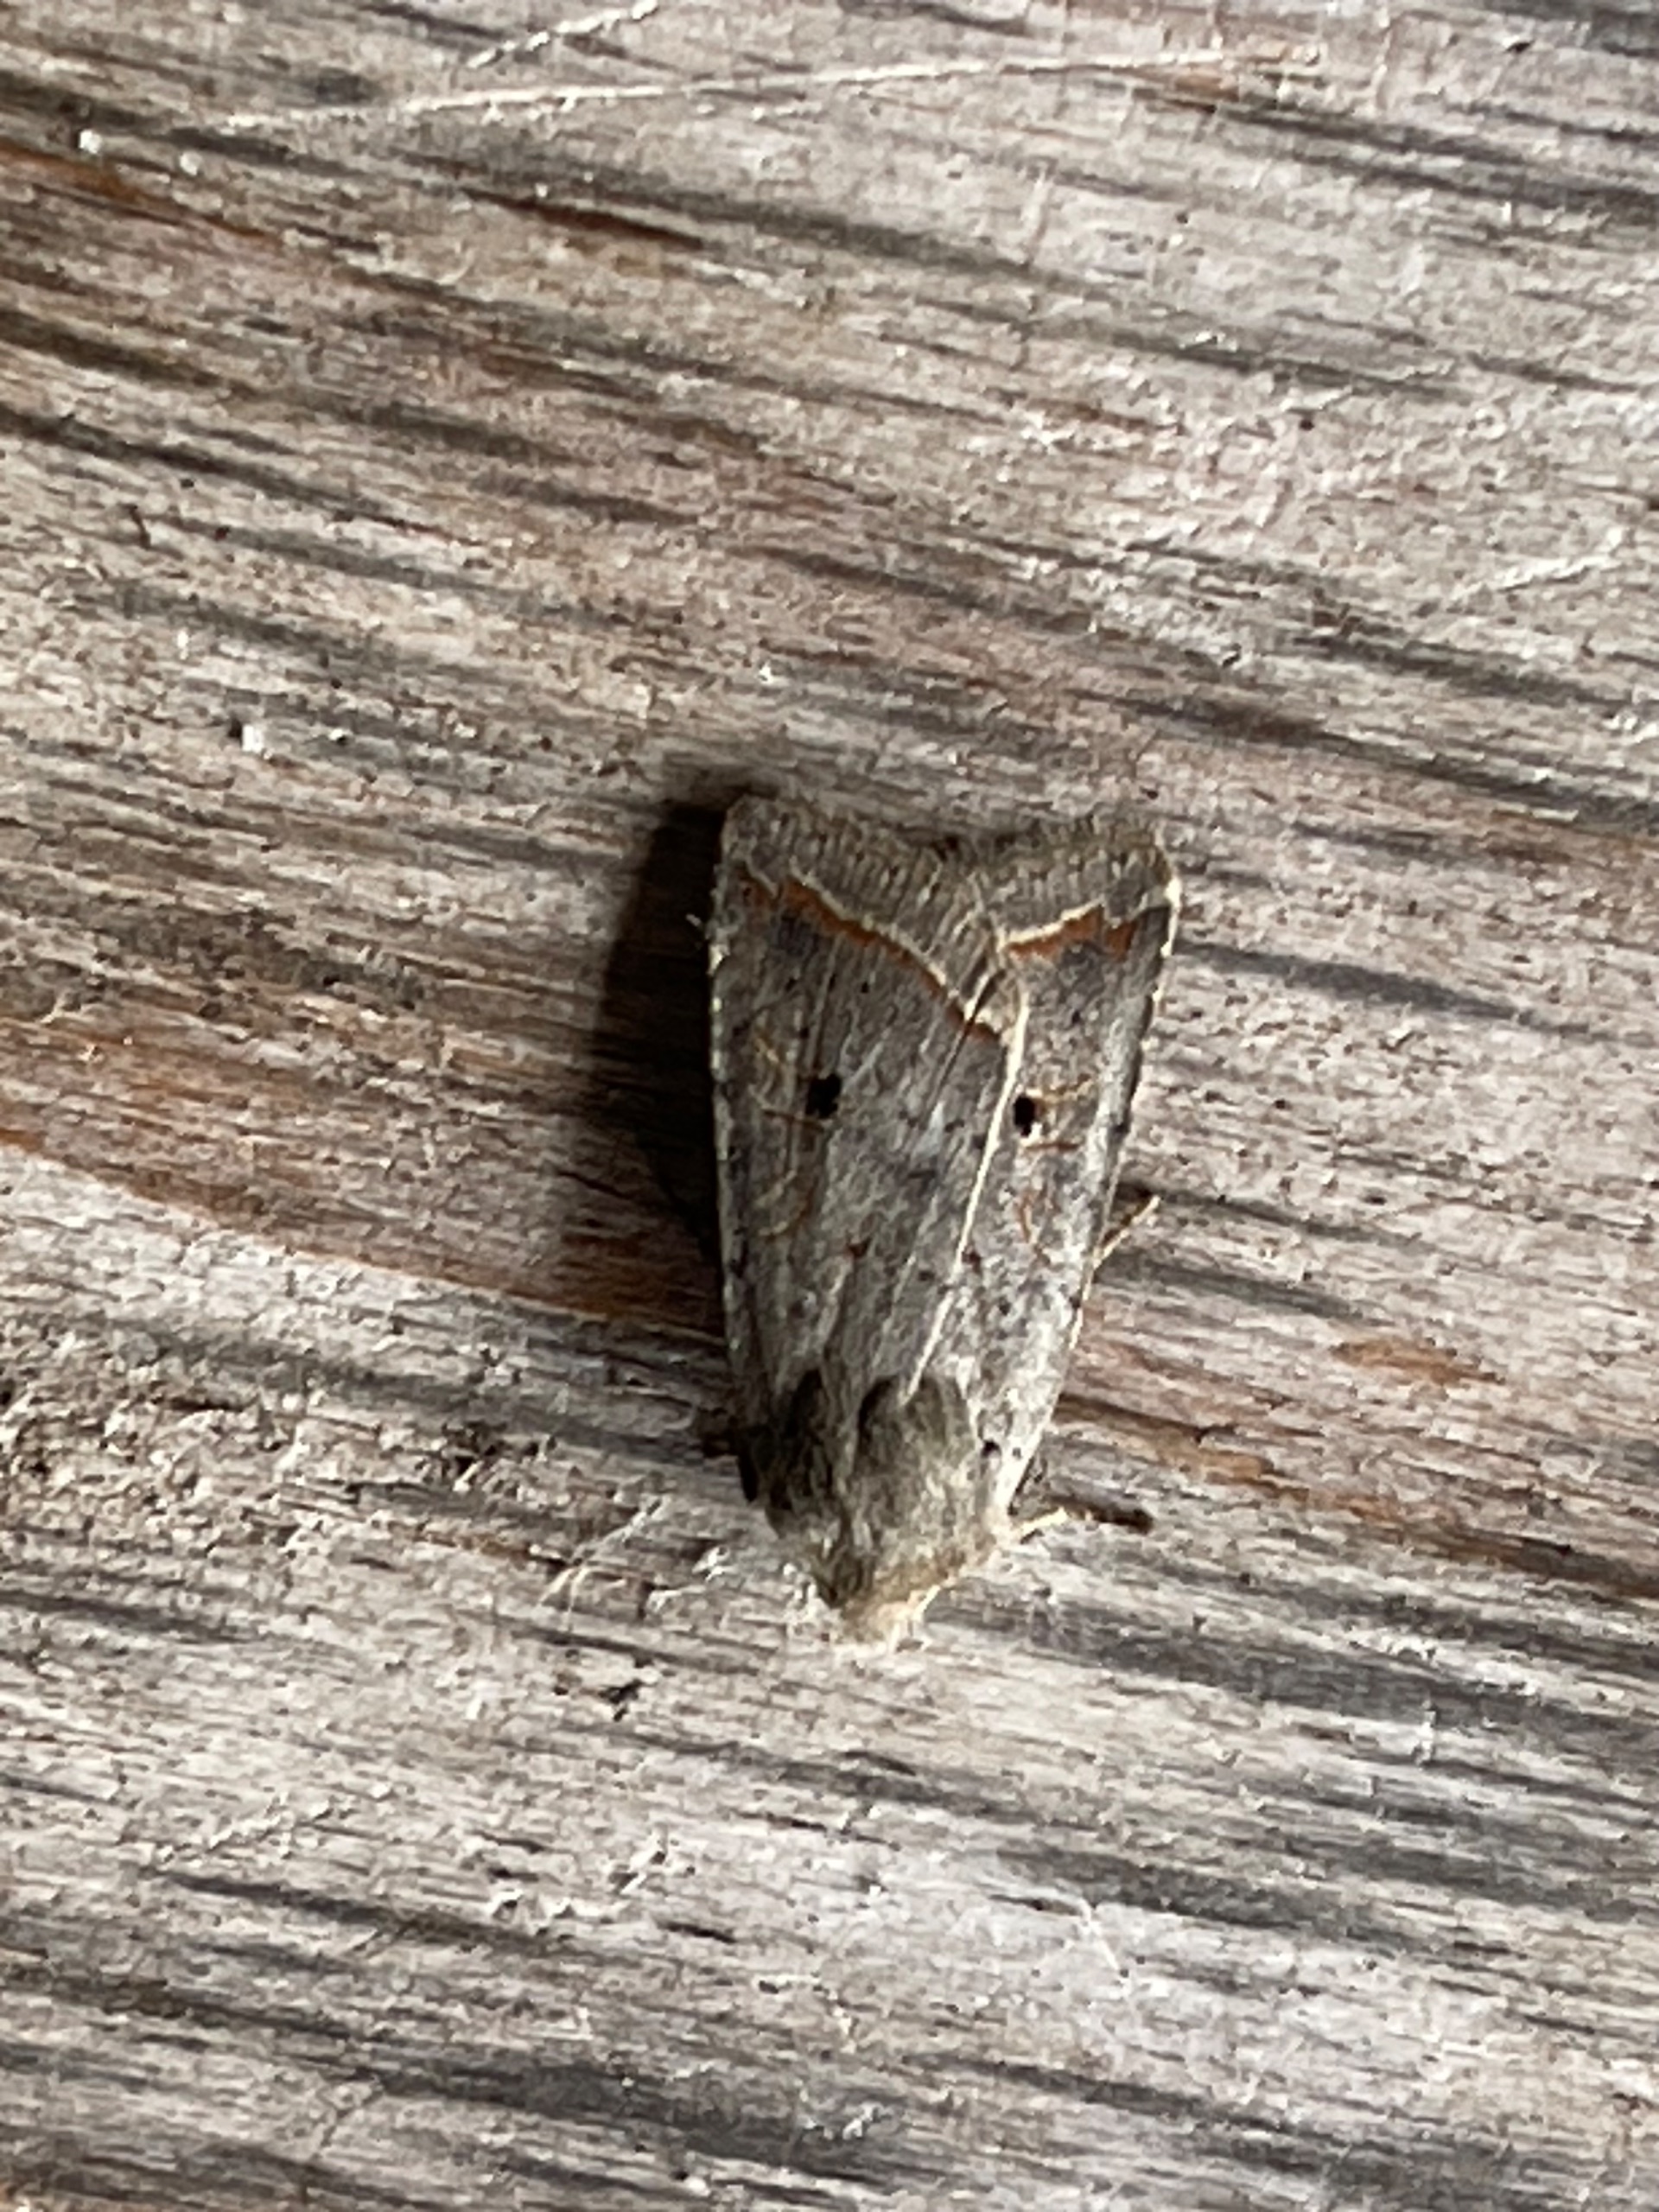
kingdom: Animalia
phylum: Arthropoda
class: Insecta
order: Lepidoptera
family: Noctuidae
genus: Agrochola
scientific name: Agrochola Leptologia lota
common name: Pile-jordfarveugle
